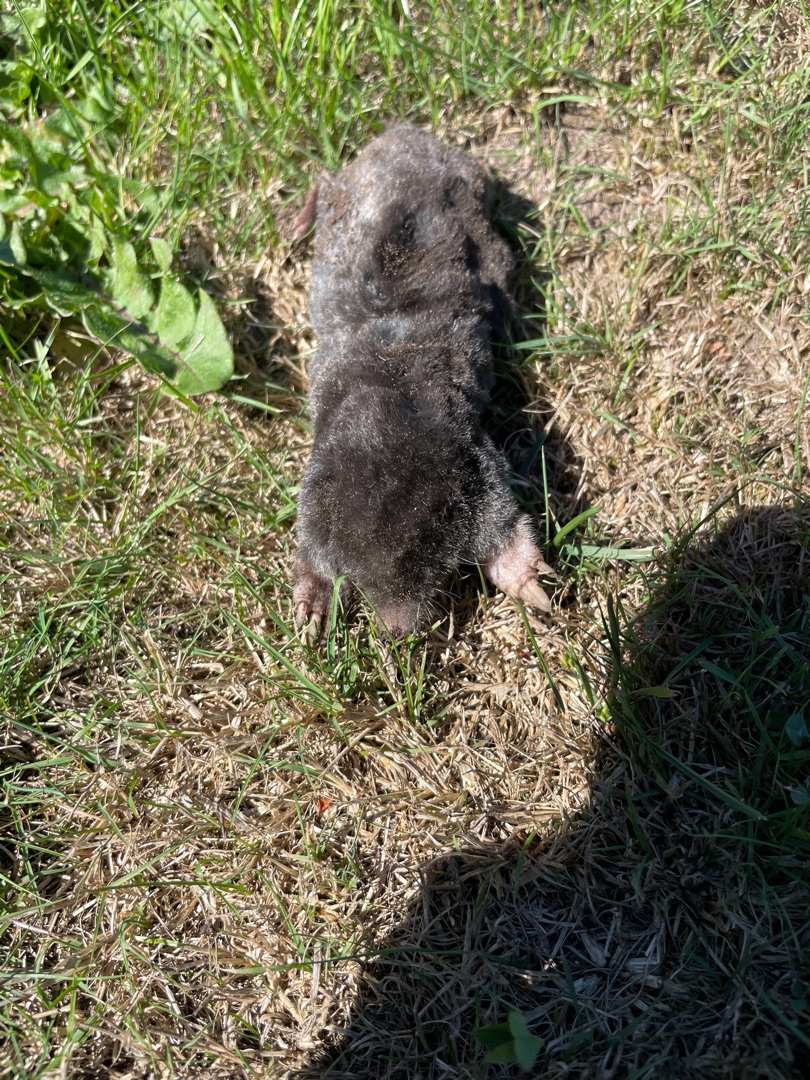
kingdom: Animalia
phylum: Chordata
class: Mammalia
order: Soricomorpha
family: Talpidae
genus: Talpa
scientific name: Talpa europaea
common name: Muldvarp
